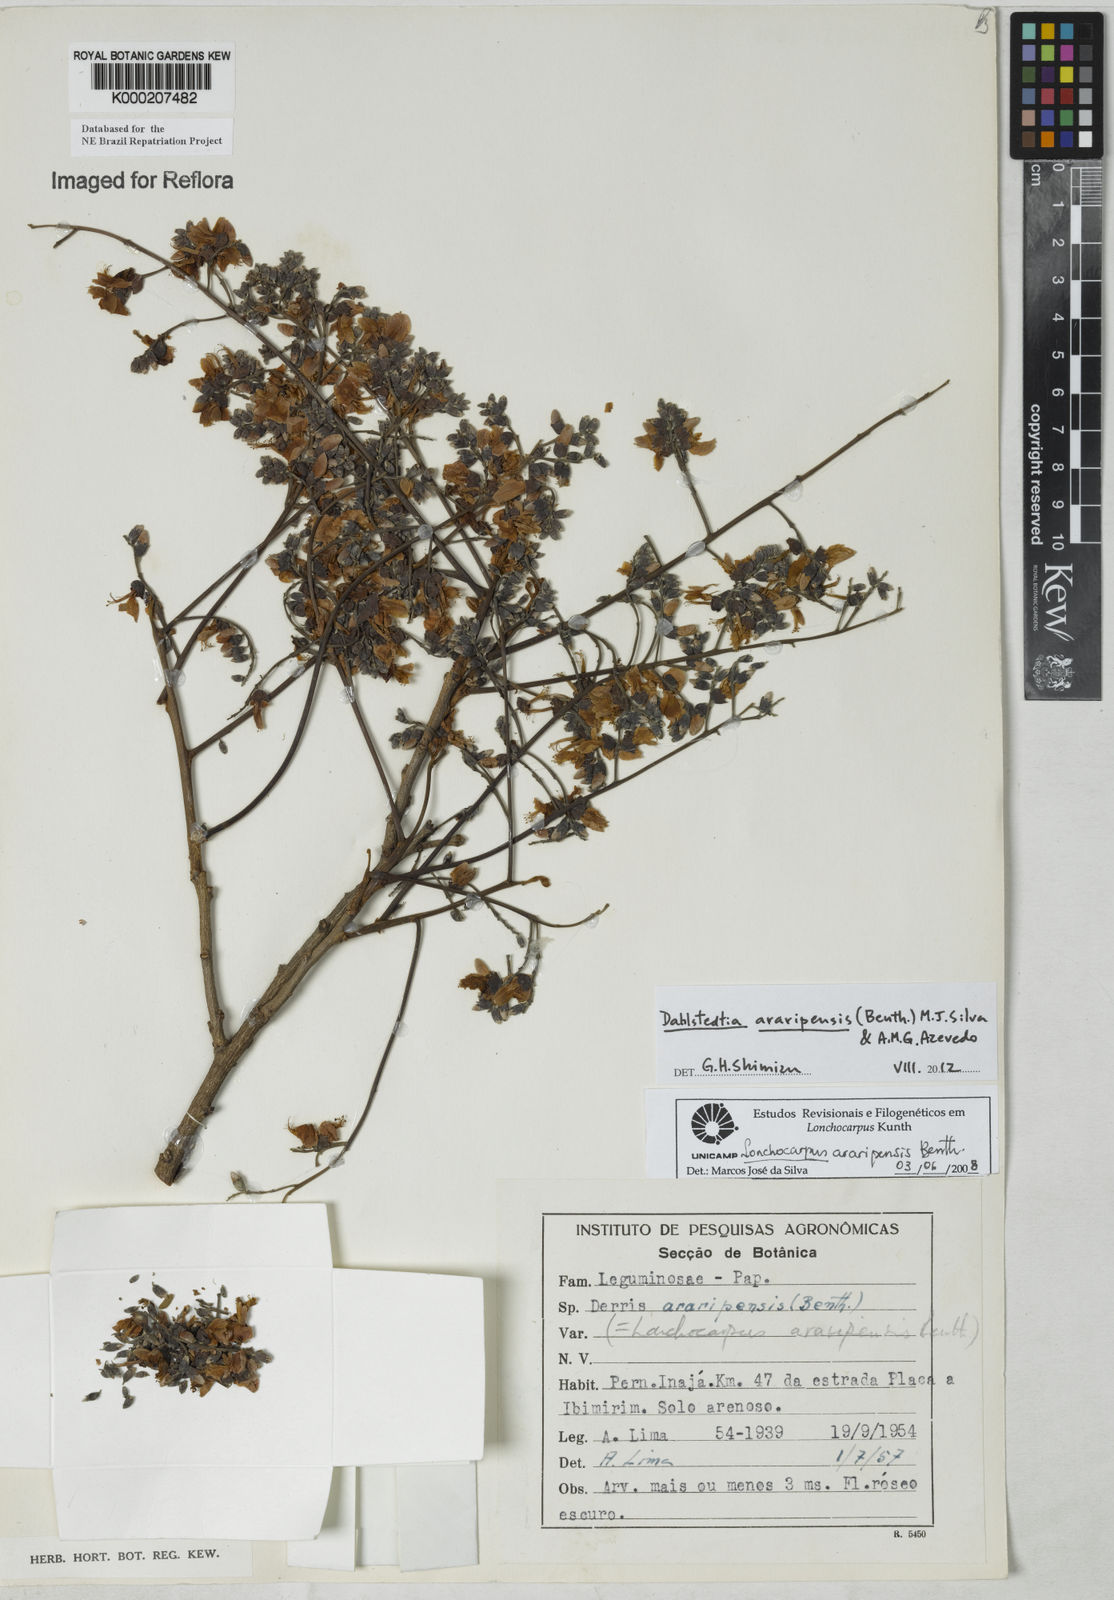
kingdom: Plantae
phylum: Tracheophyta
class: Magnoliopsida
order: Fabales
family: Fabaceae
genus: Dahlstedtia
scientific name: Dahlstedtia araripensis
